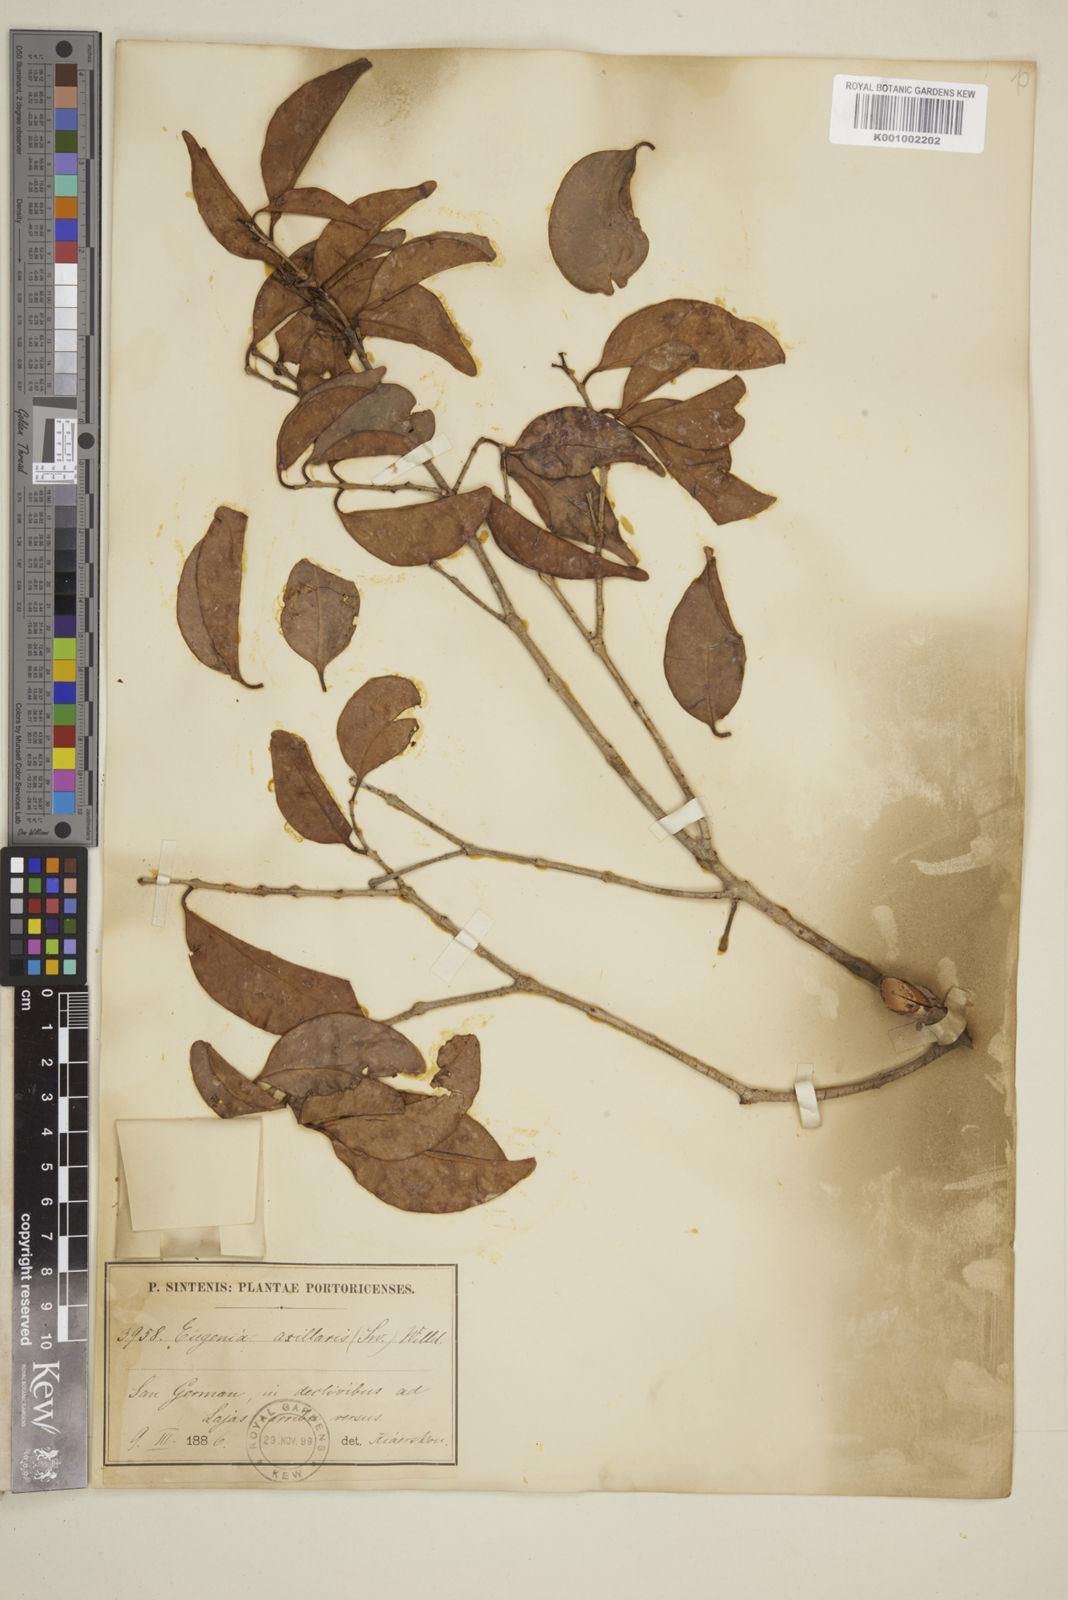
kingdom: Plantae
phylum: Tracheophyta
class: Magnoliopsida
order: Myrtales
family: Myrtaceae
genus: Eugenia
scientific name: Eugenia axillaris
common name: Choaky berry
